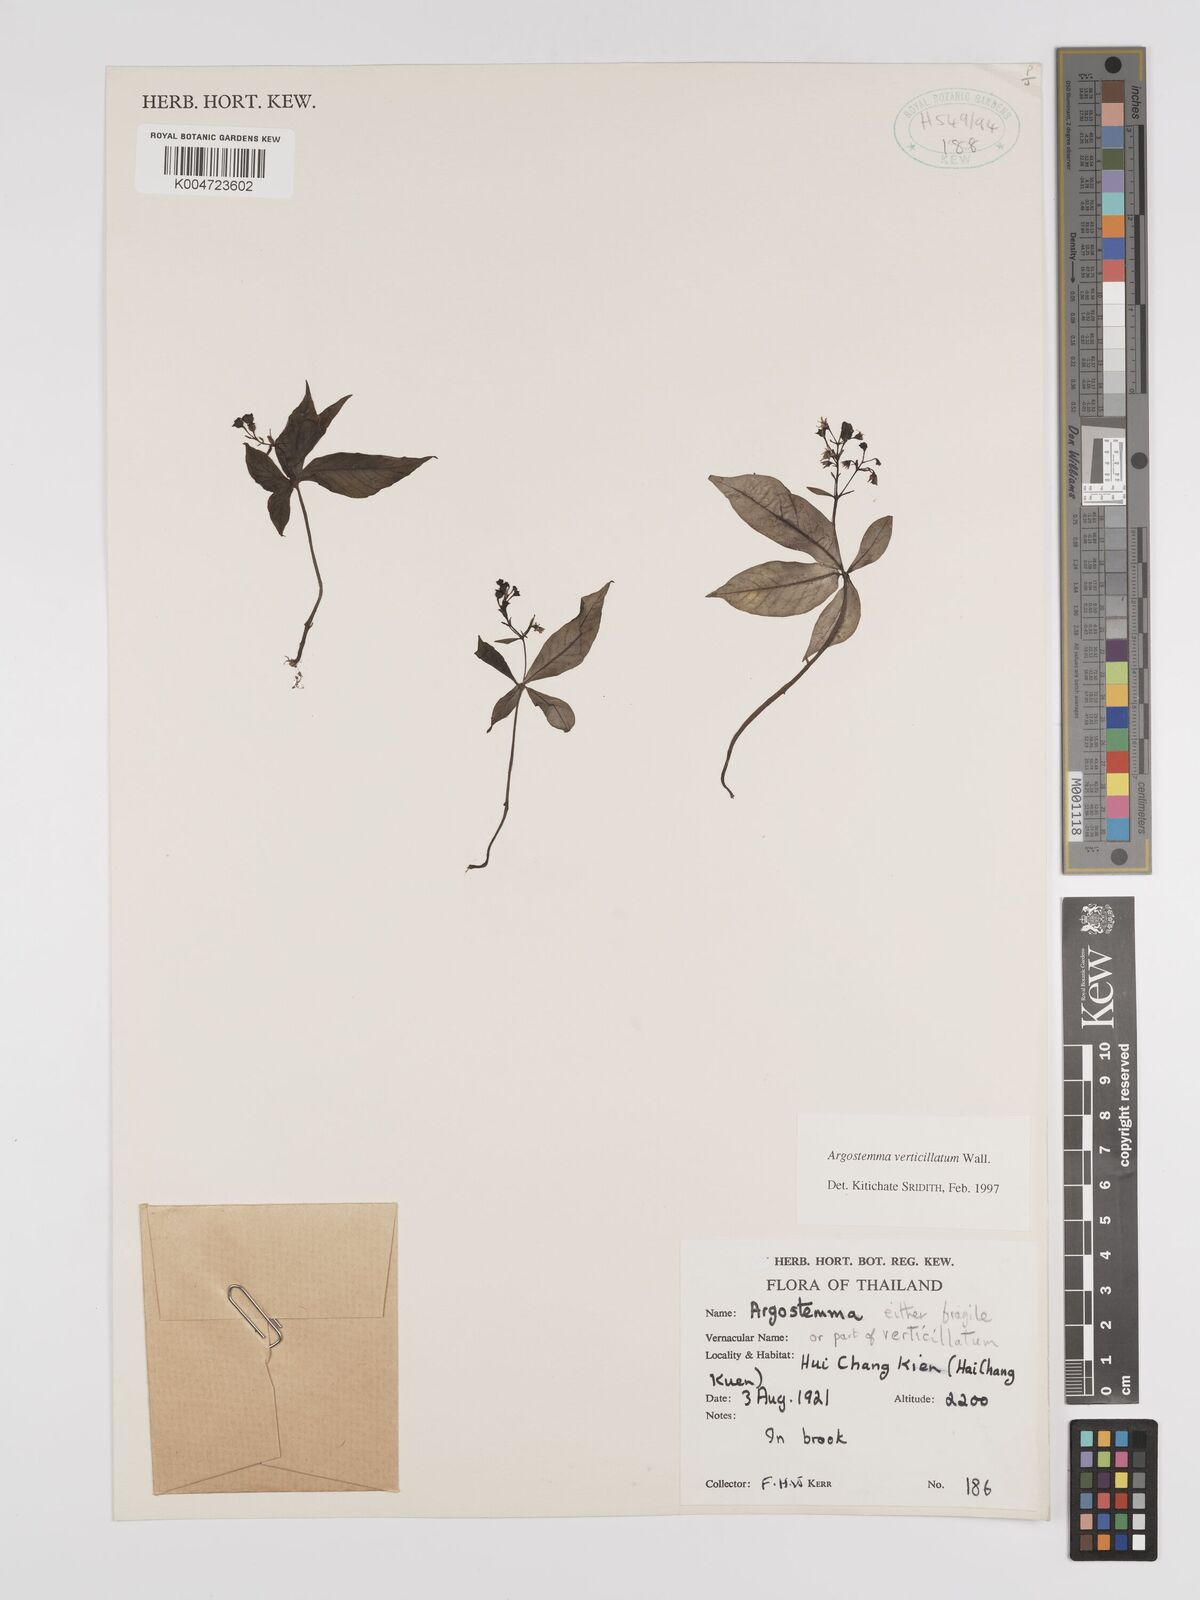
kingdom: Plantae
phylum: Tracheophyta
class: Magnoliopsida
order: Gentianales
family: Rubiaceae
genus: Argostemma
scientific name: Argostemma verticillatum
